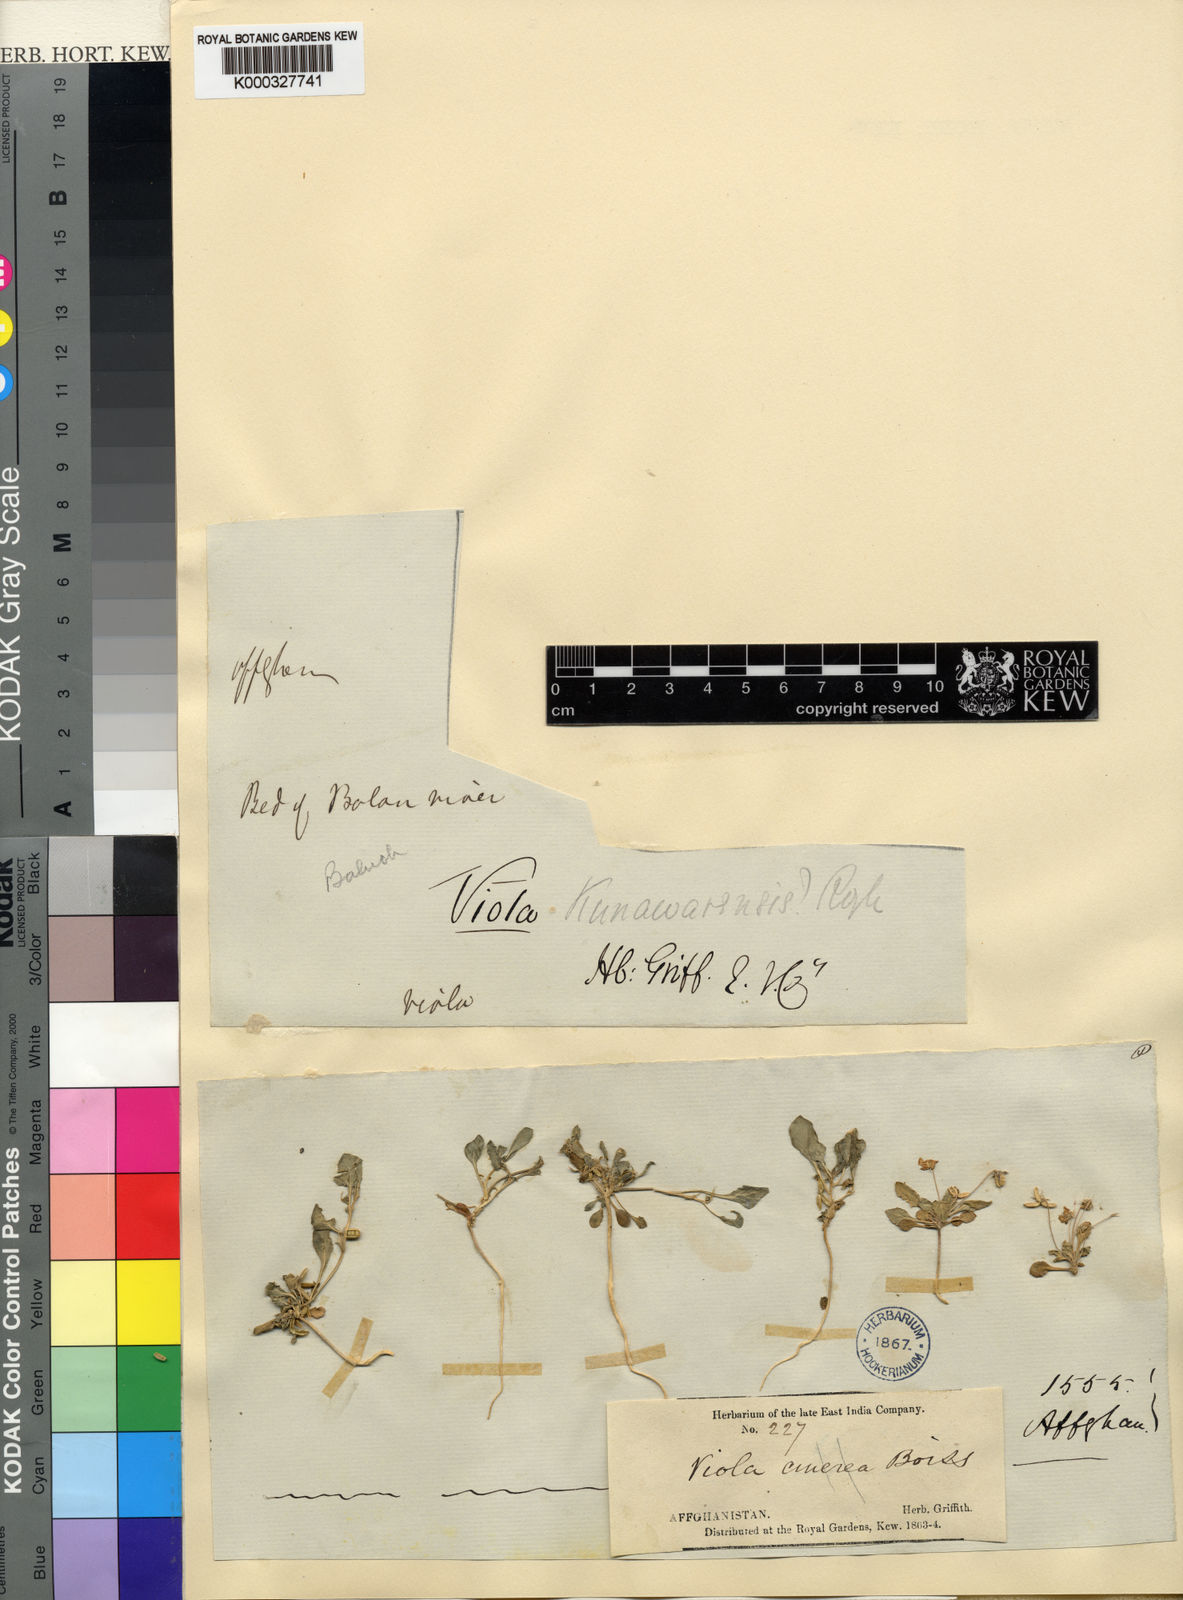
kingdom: Plantae
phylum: Tracheophyta
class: Magnoliopsida
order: Malpighiales
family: Violaceae
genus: Viola
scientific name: Viola cinerea
